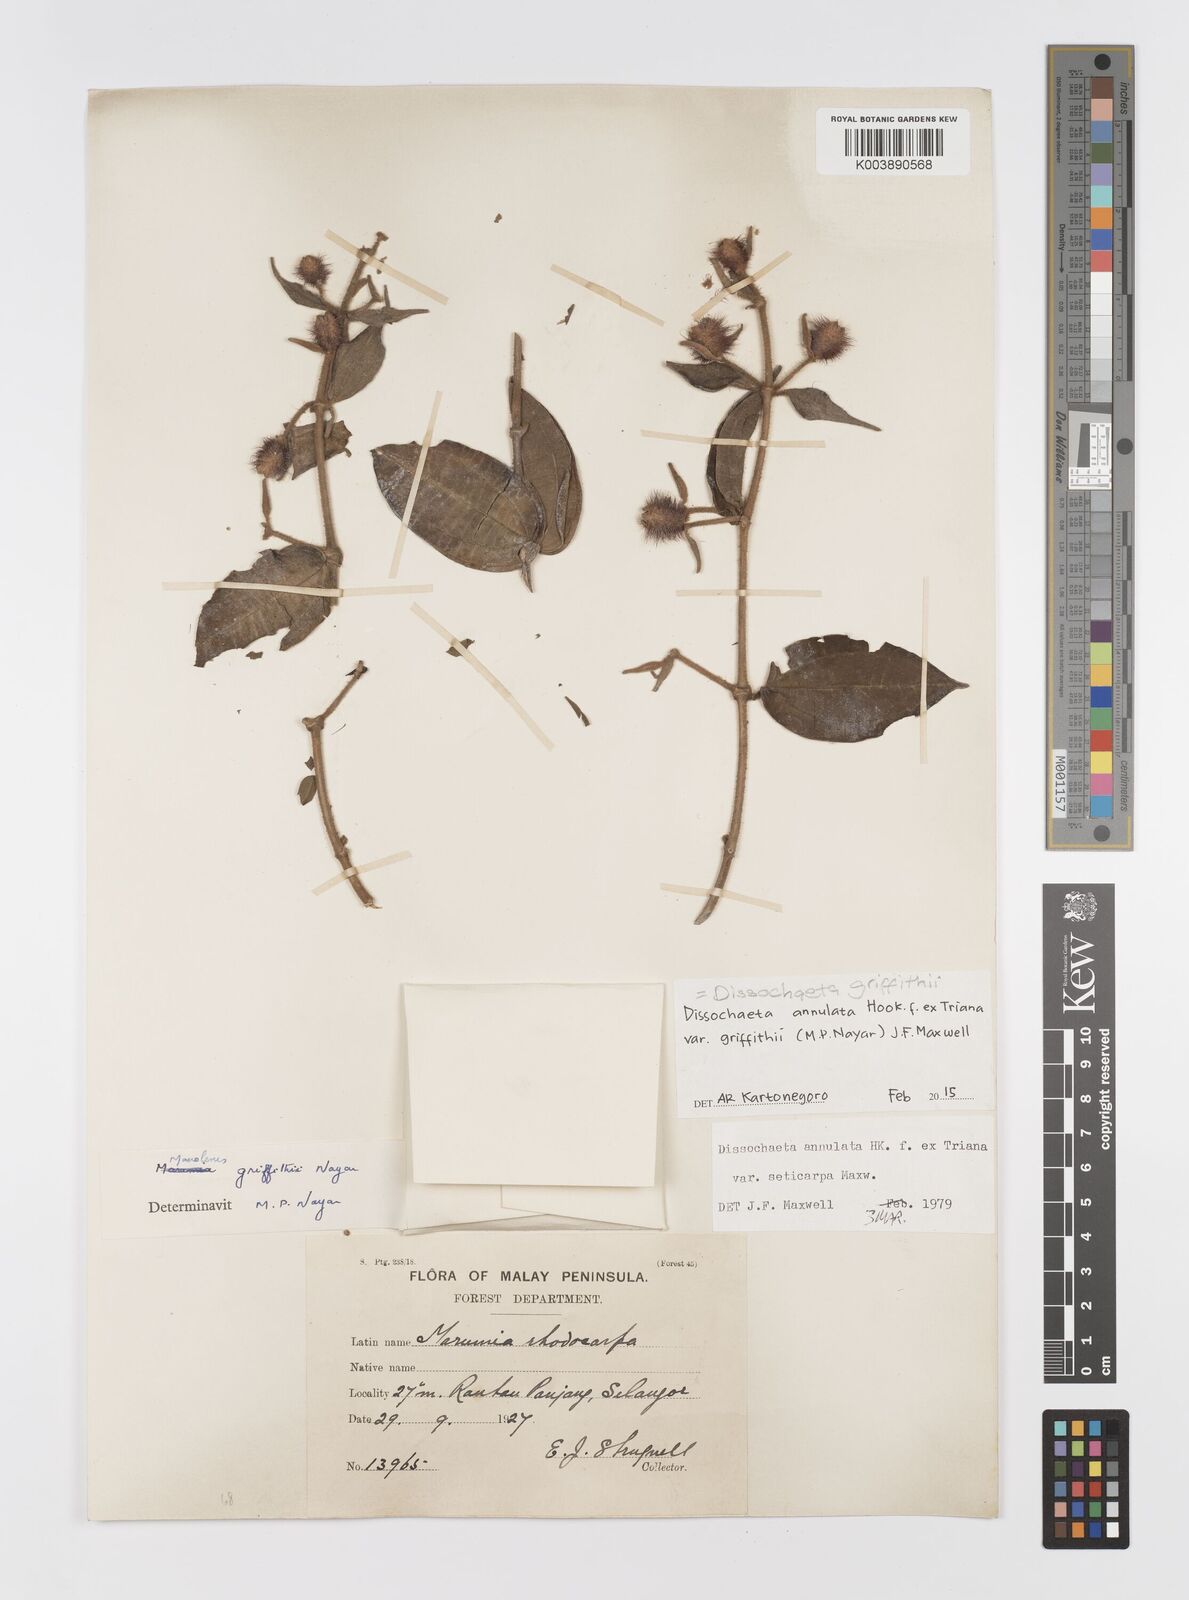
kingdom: Plantae
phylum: Tracheophyta
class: Magnoliopsida
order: Myrtales
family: Melastomataceae
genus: Dissochaeta
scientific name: Dissochaeta griffithii
